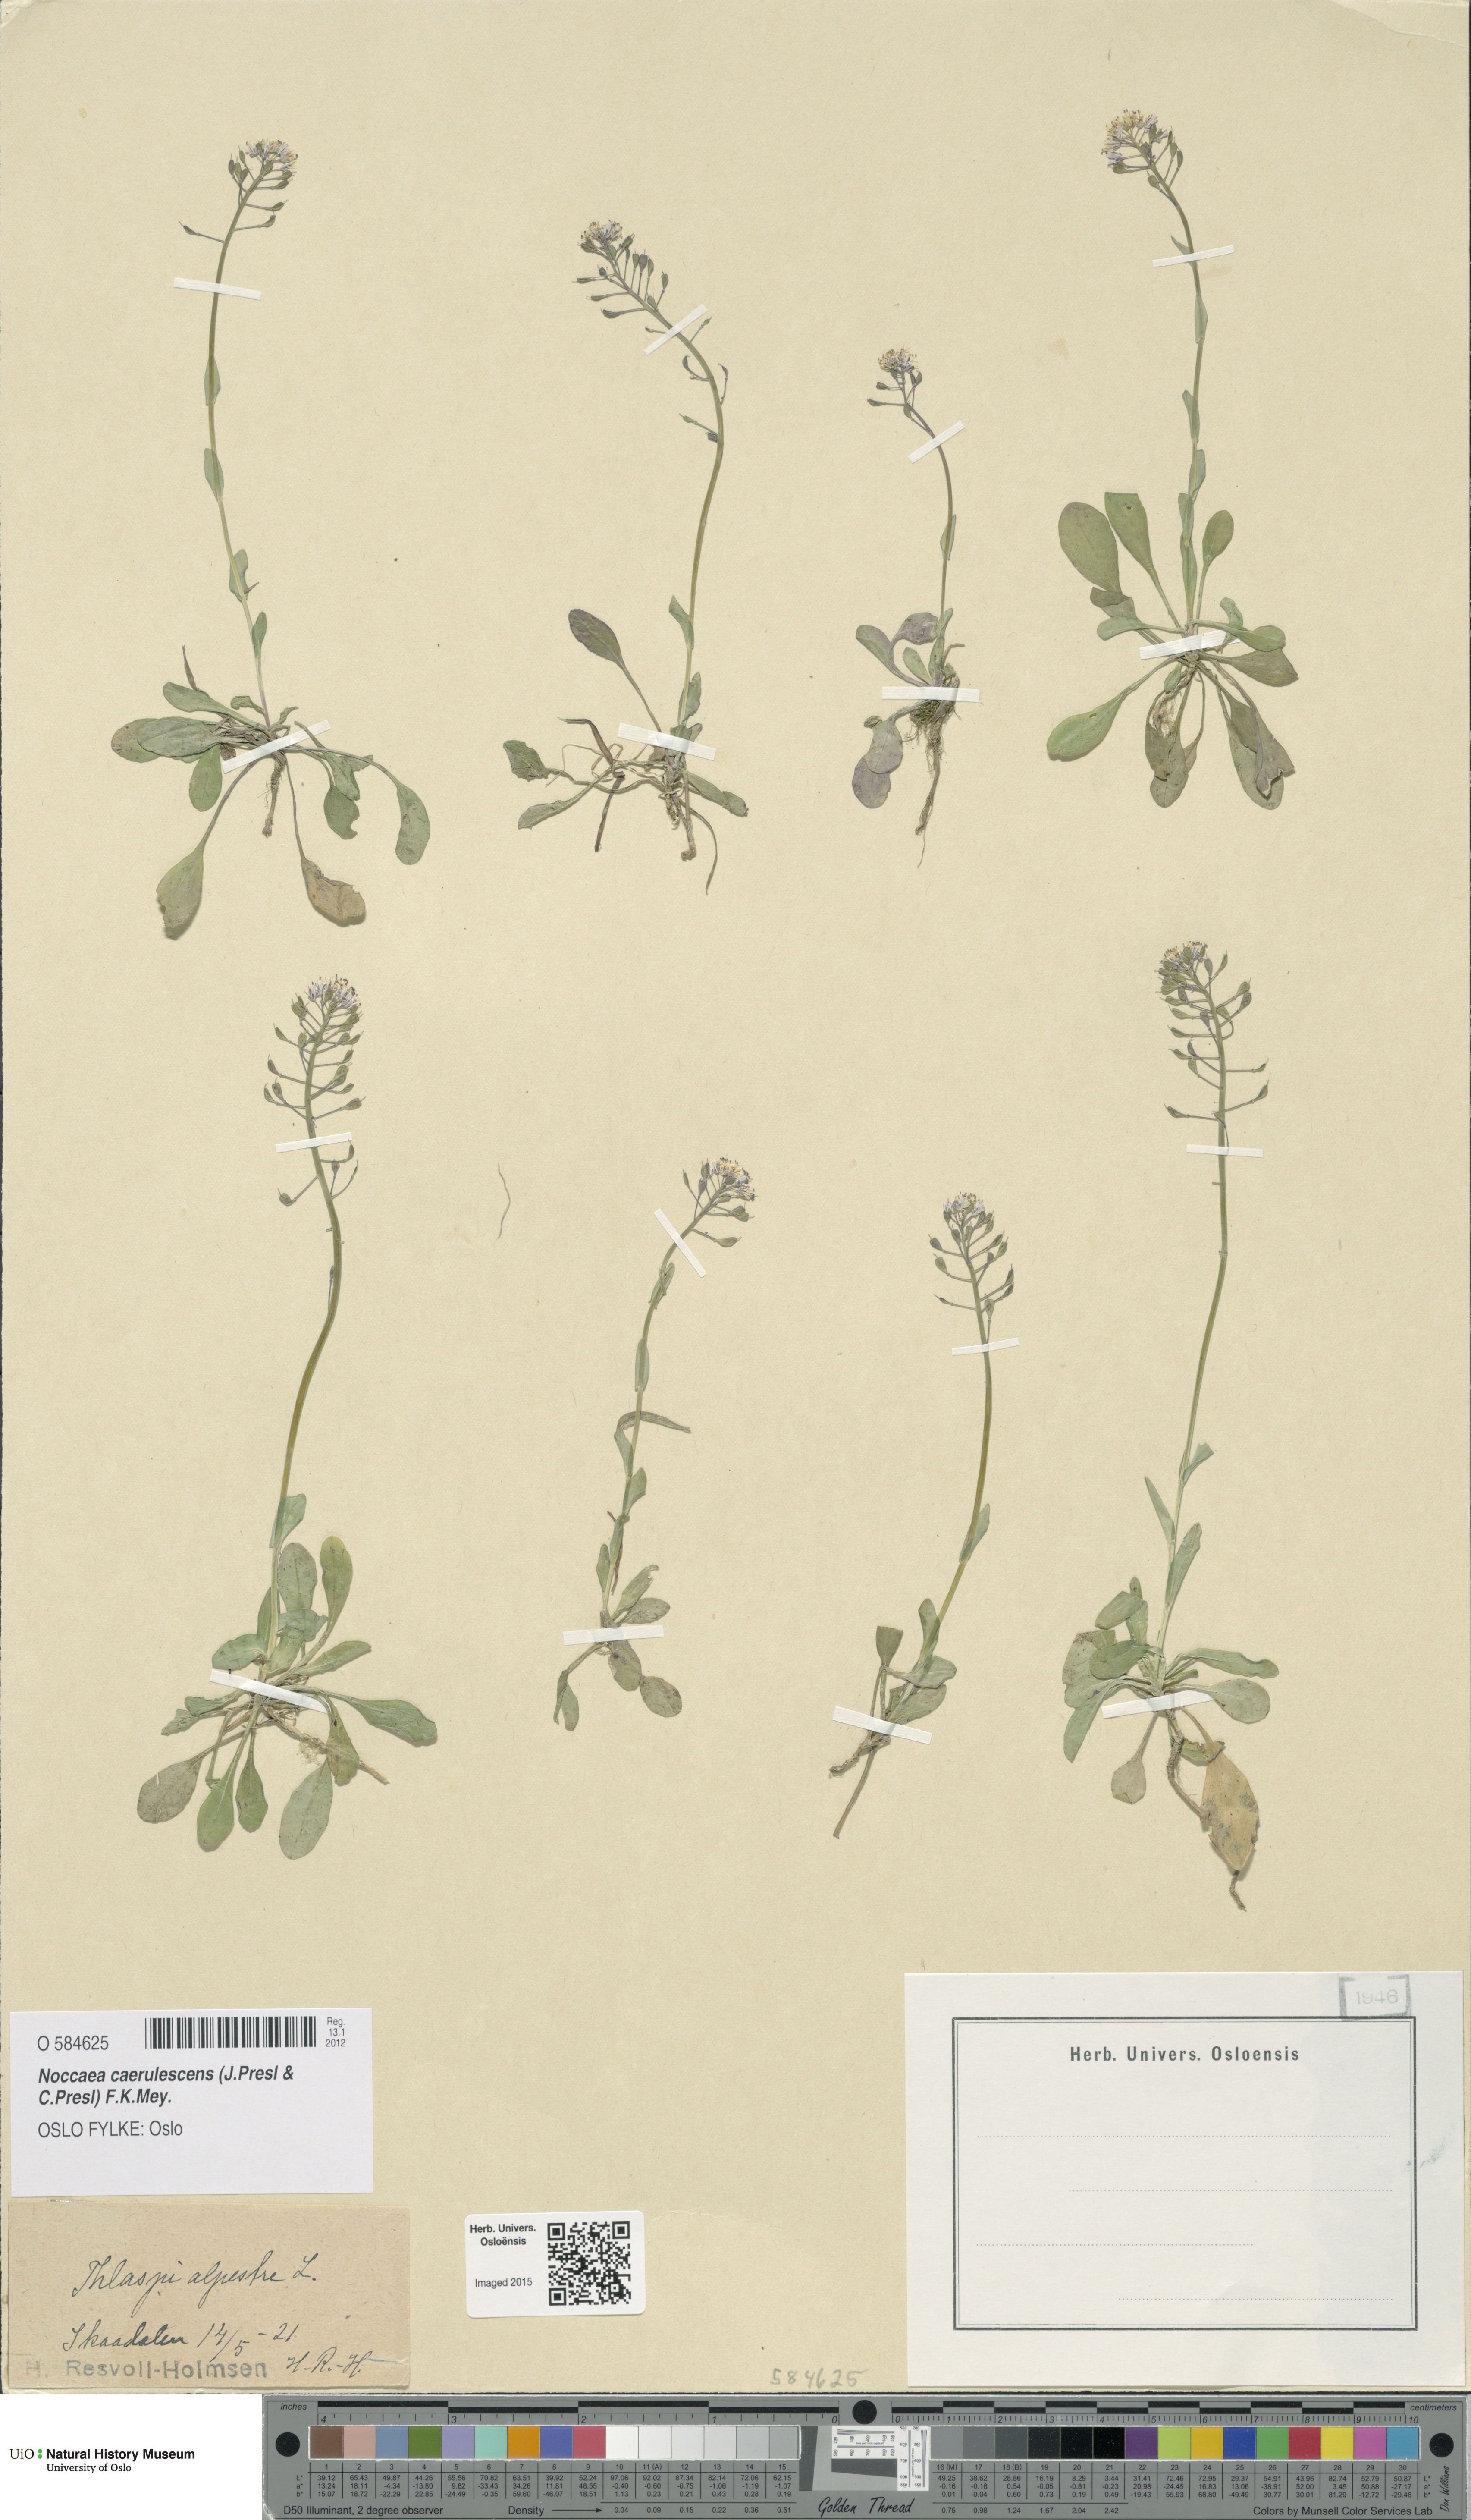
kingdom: Plantae
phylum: Tracheophyta
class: Magnoliopsida
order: Brassicales
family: Brassicaceae
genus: Noccaea
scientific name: Noccaea caerulescens
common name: Alpine pennycress
